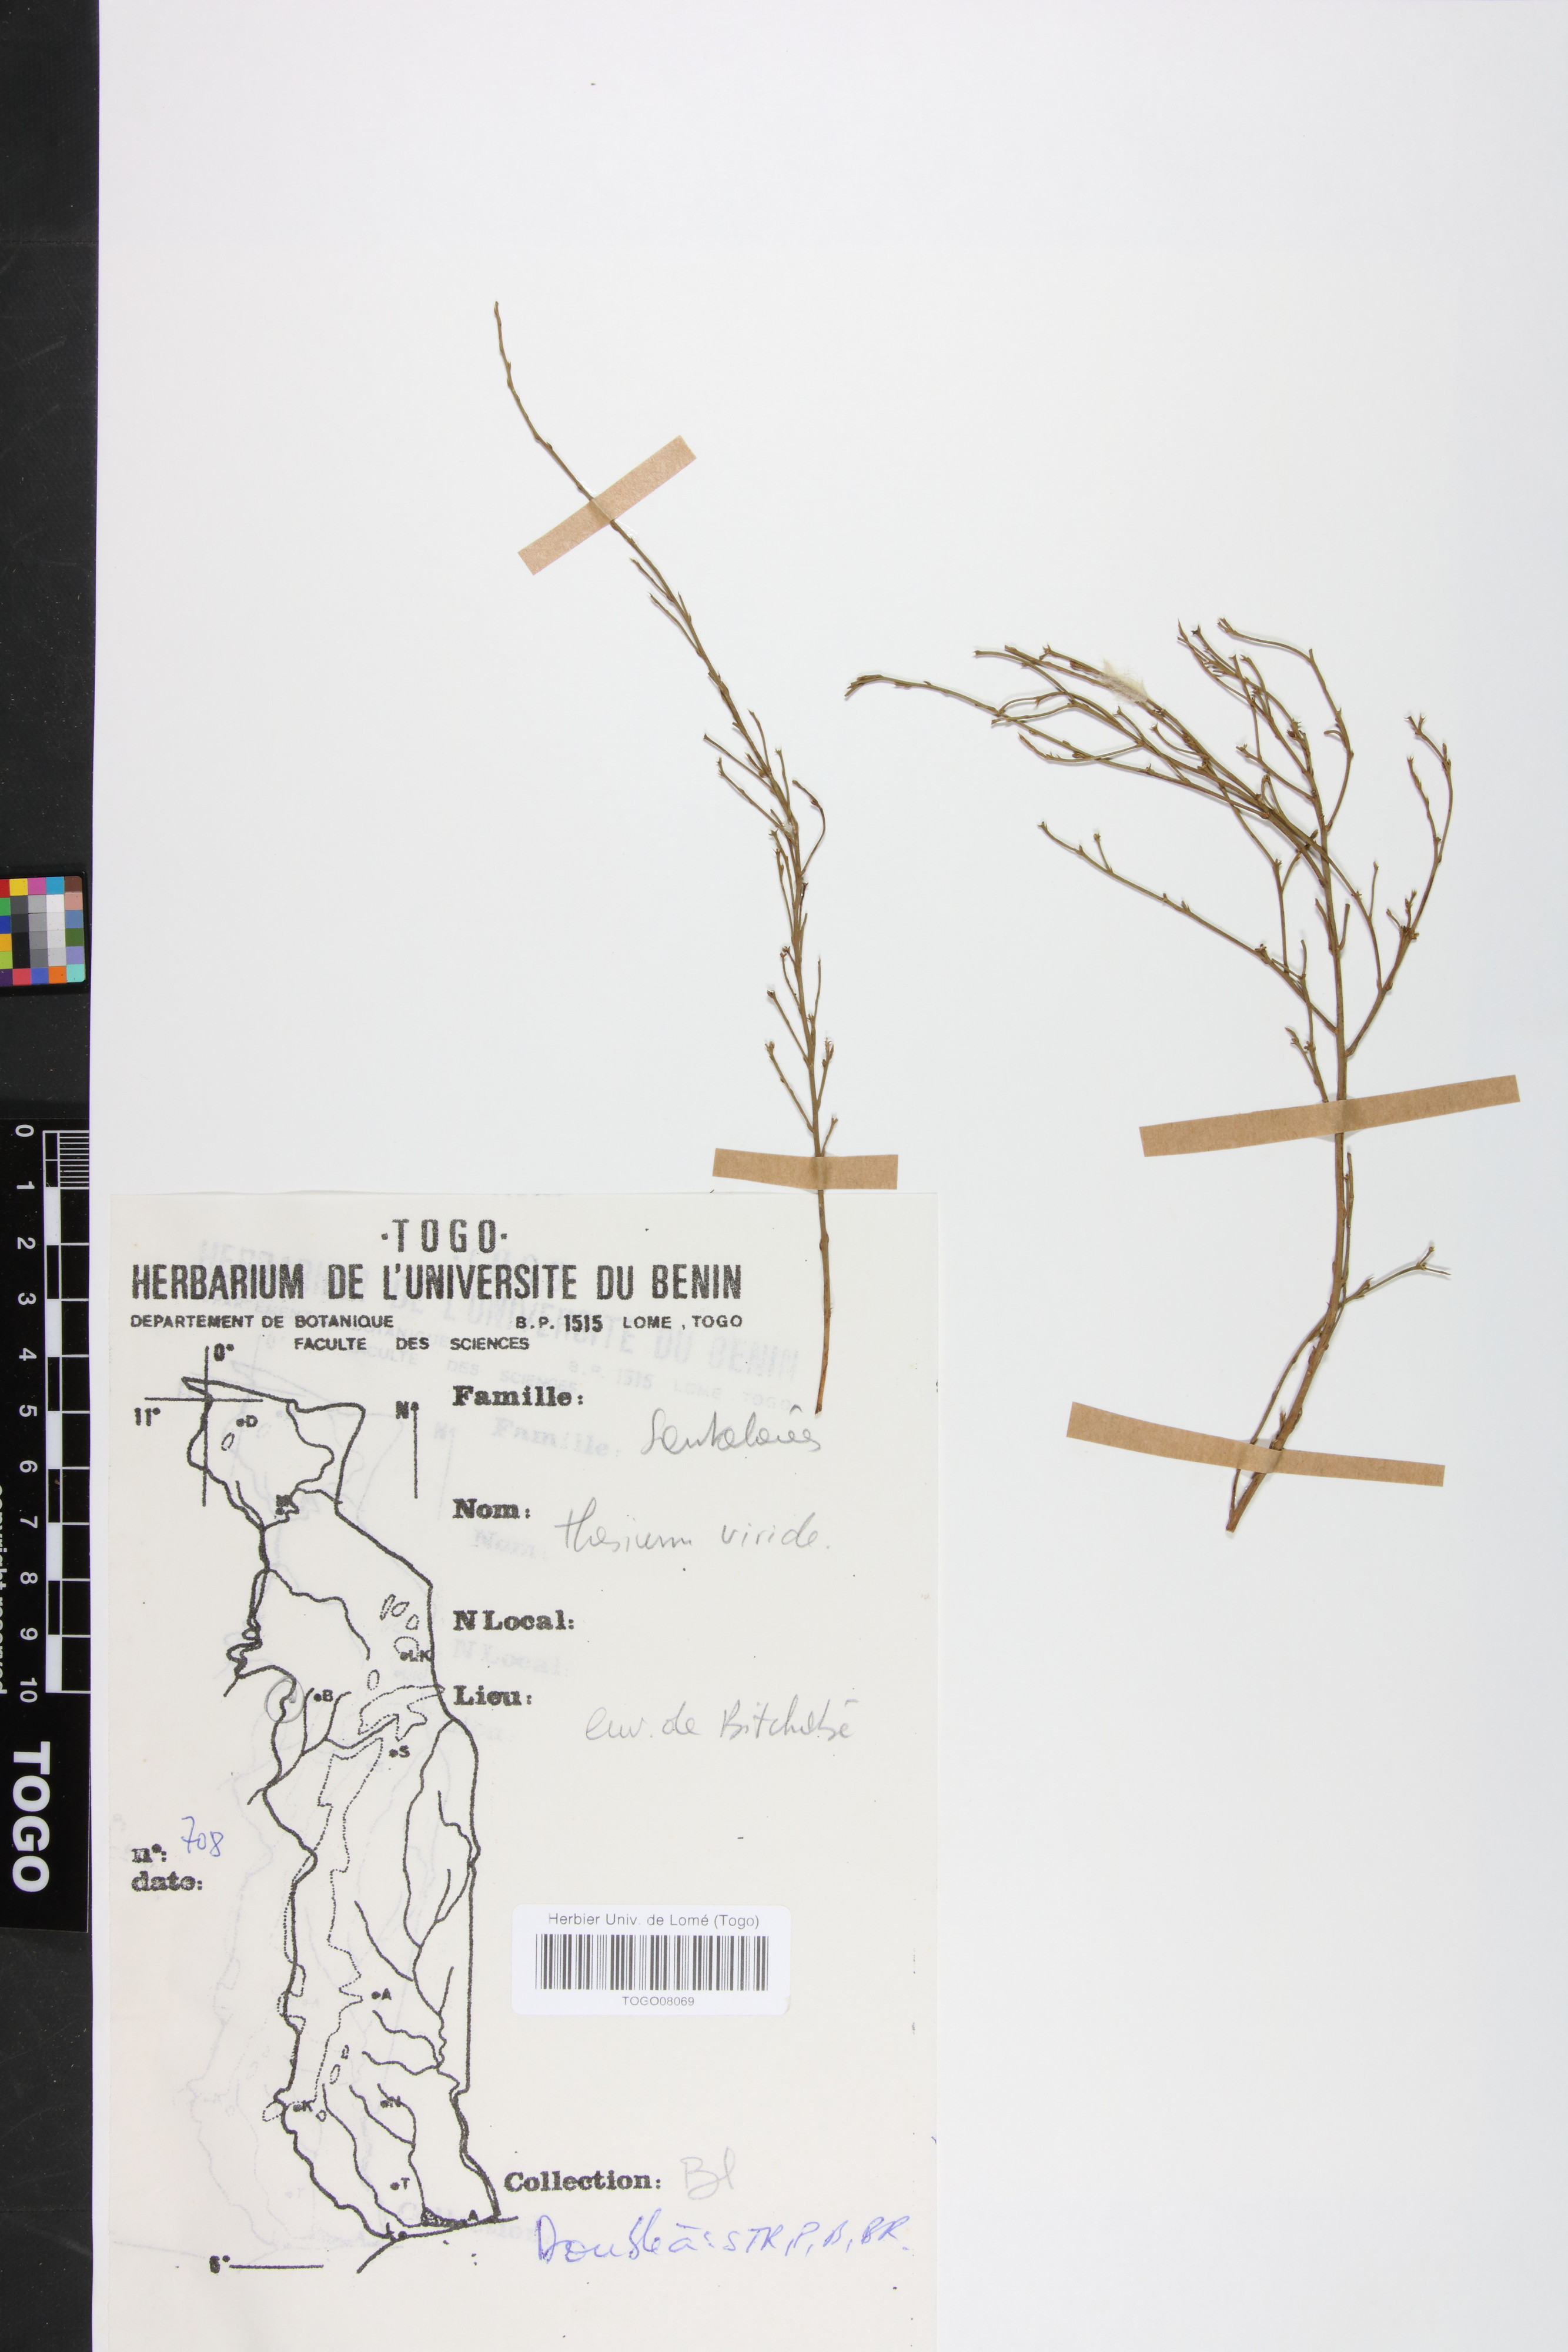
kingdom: Plantae
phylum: Tracheophyta
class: Magnoliopsida
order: Santalales
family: Thesiaceae
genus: Thesium
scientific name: Thesium viride
